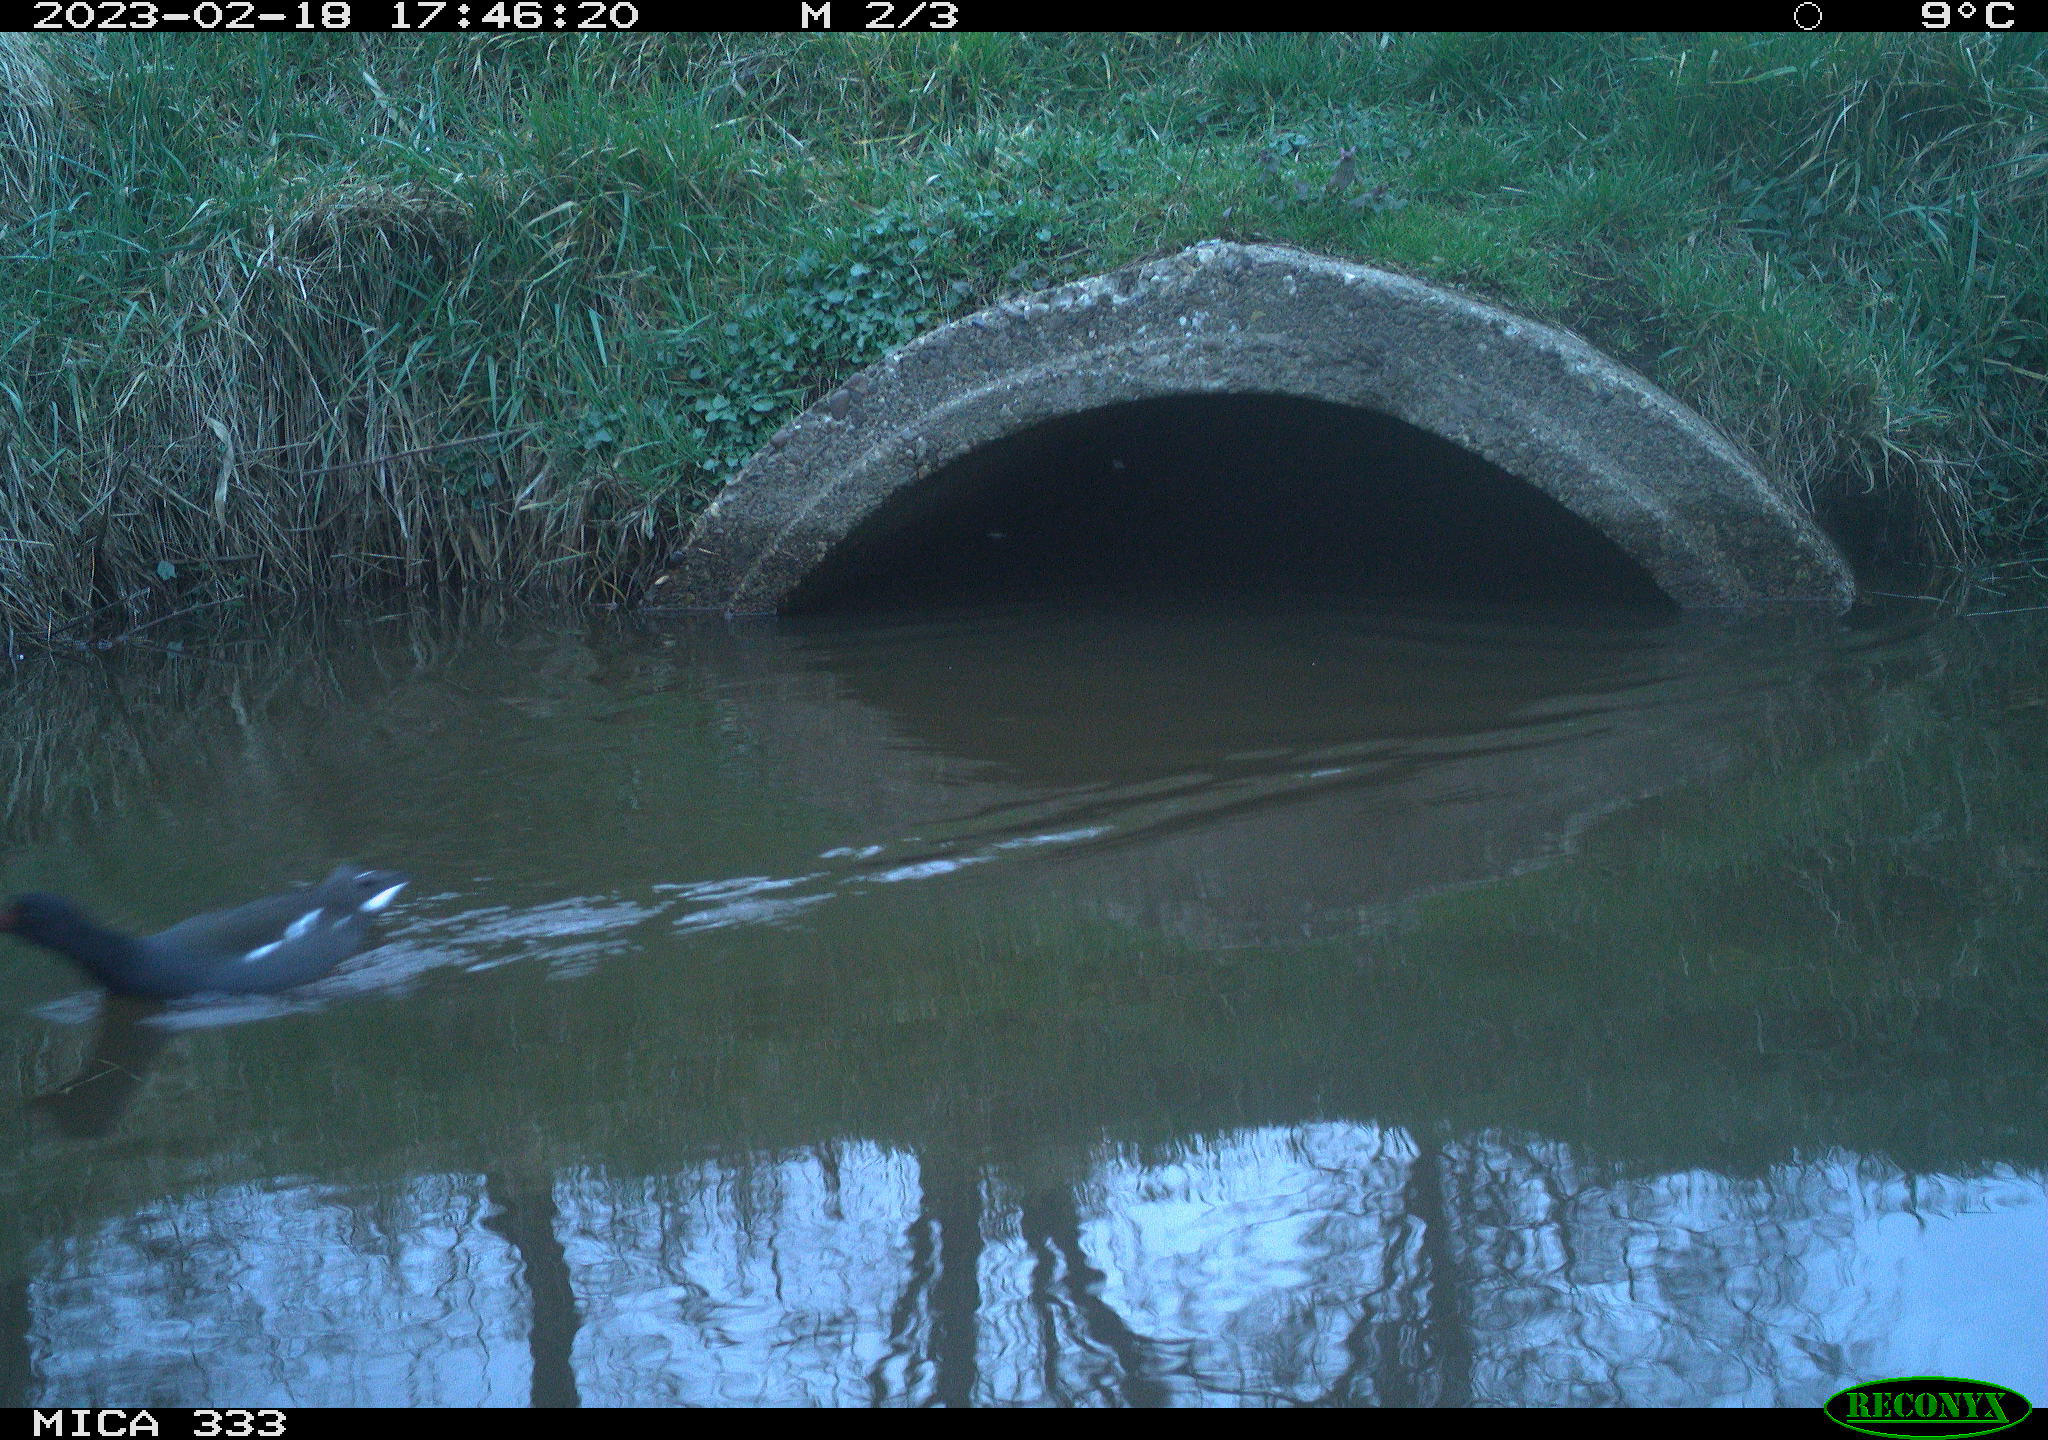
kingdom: Animalia
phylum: Chordata
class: Aves
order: Gruiformes
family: Rallidae
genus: Gallinula
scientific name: Gallinula chloropus
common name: Common moorhen
